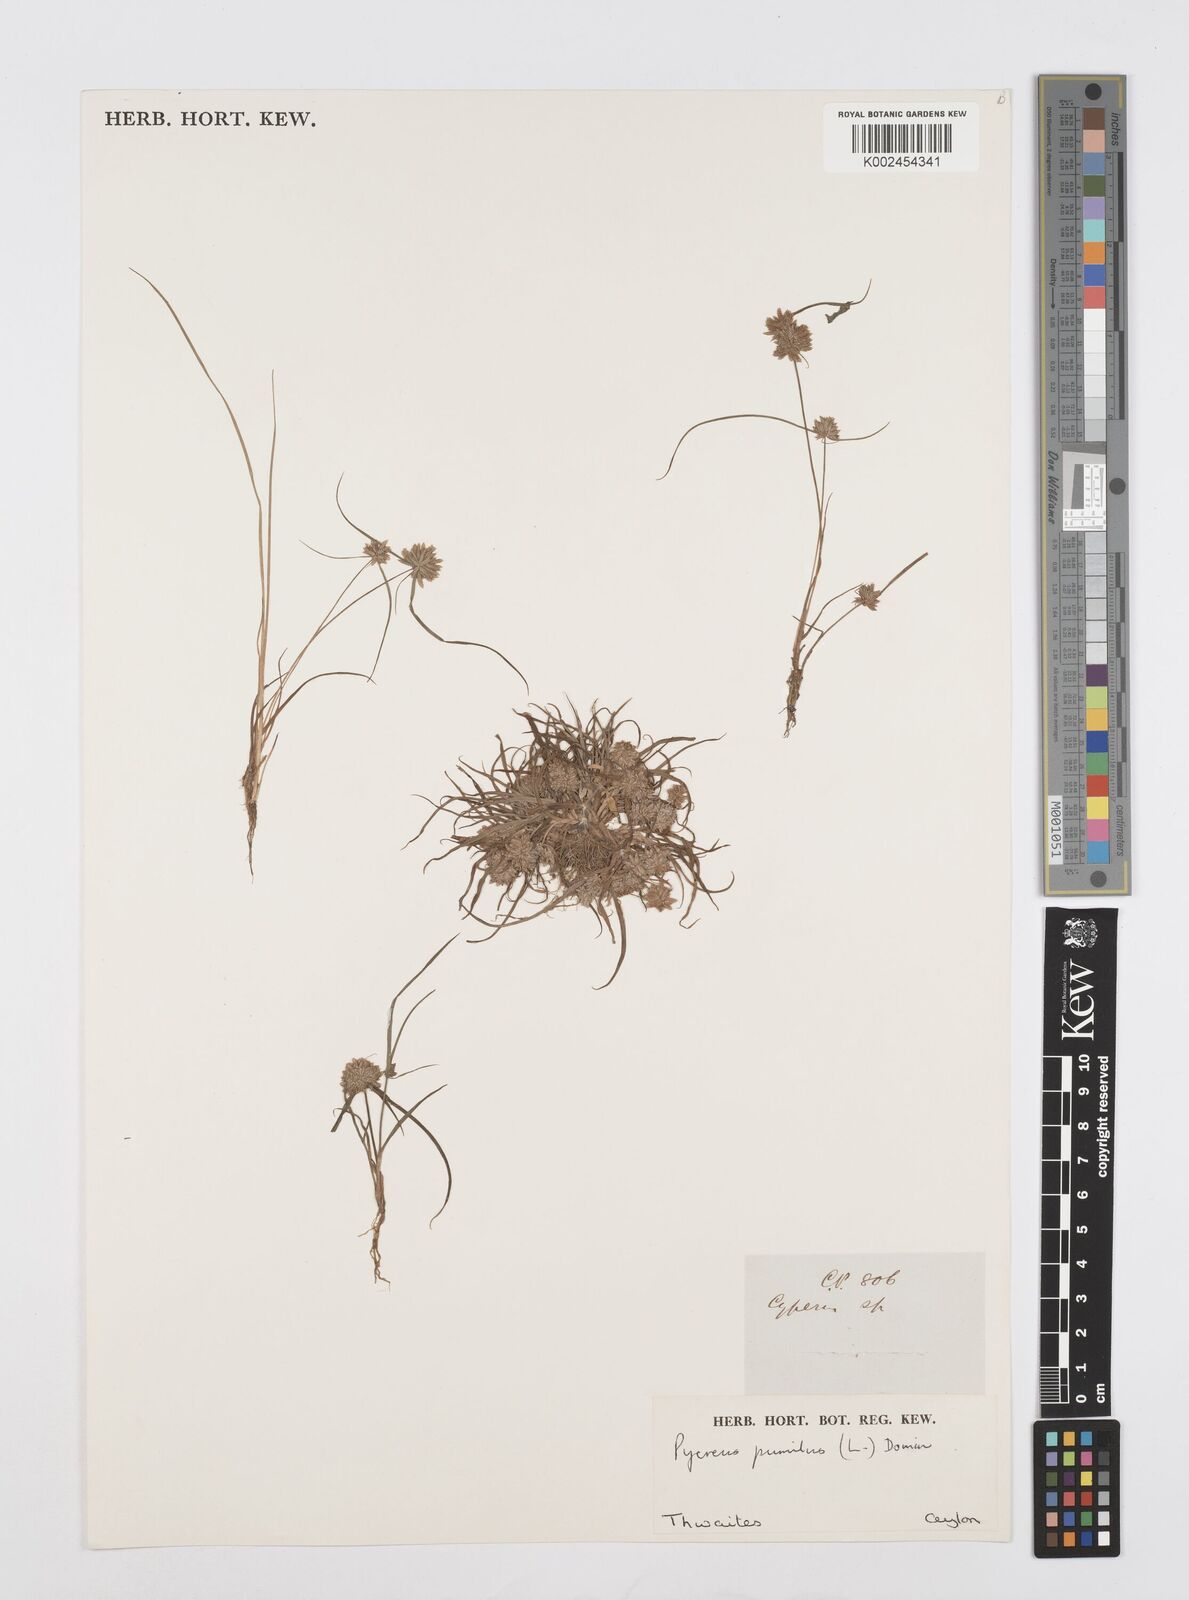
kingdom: Plantae
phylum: Tracheophyta
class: Liliopsida
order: Poales
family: Cyperaceae
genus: Cyperus
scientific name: Cyperus pumilus
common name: Low flatsedge
